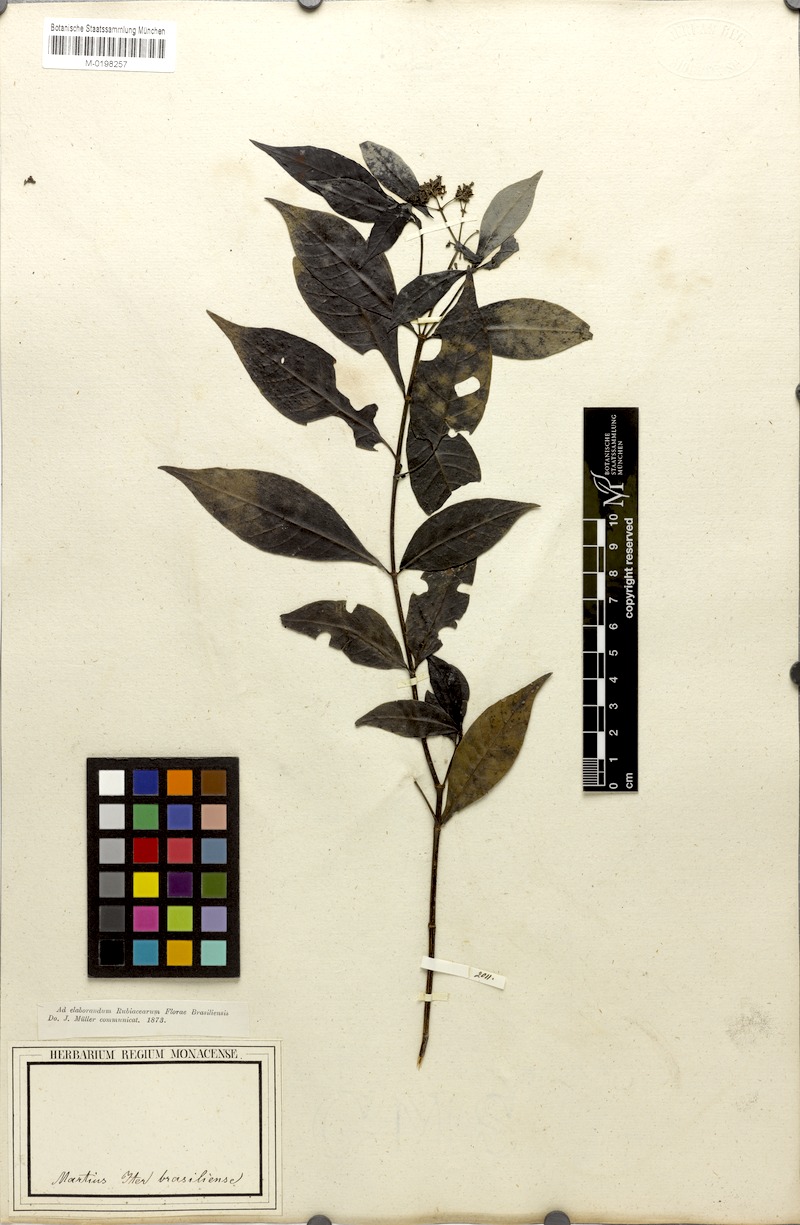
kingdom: Plantae
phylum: Tracheophyta
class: Magnoliopsida
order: Gentianales
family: Rubiaceae
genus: Psychotria
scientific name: Psychotria Mapouria lurida
